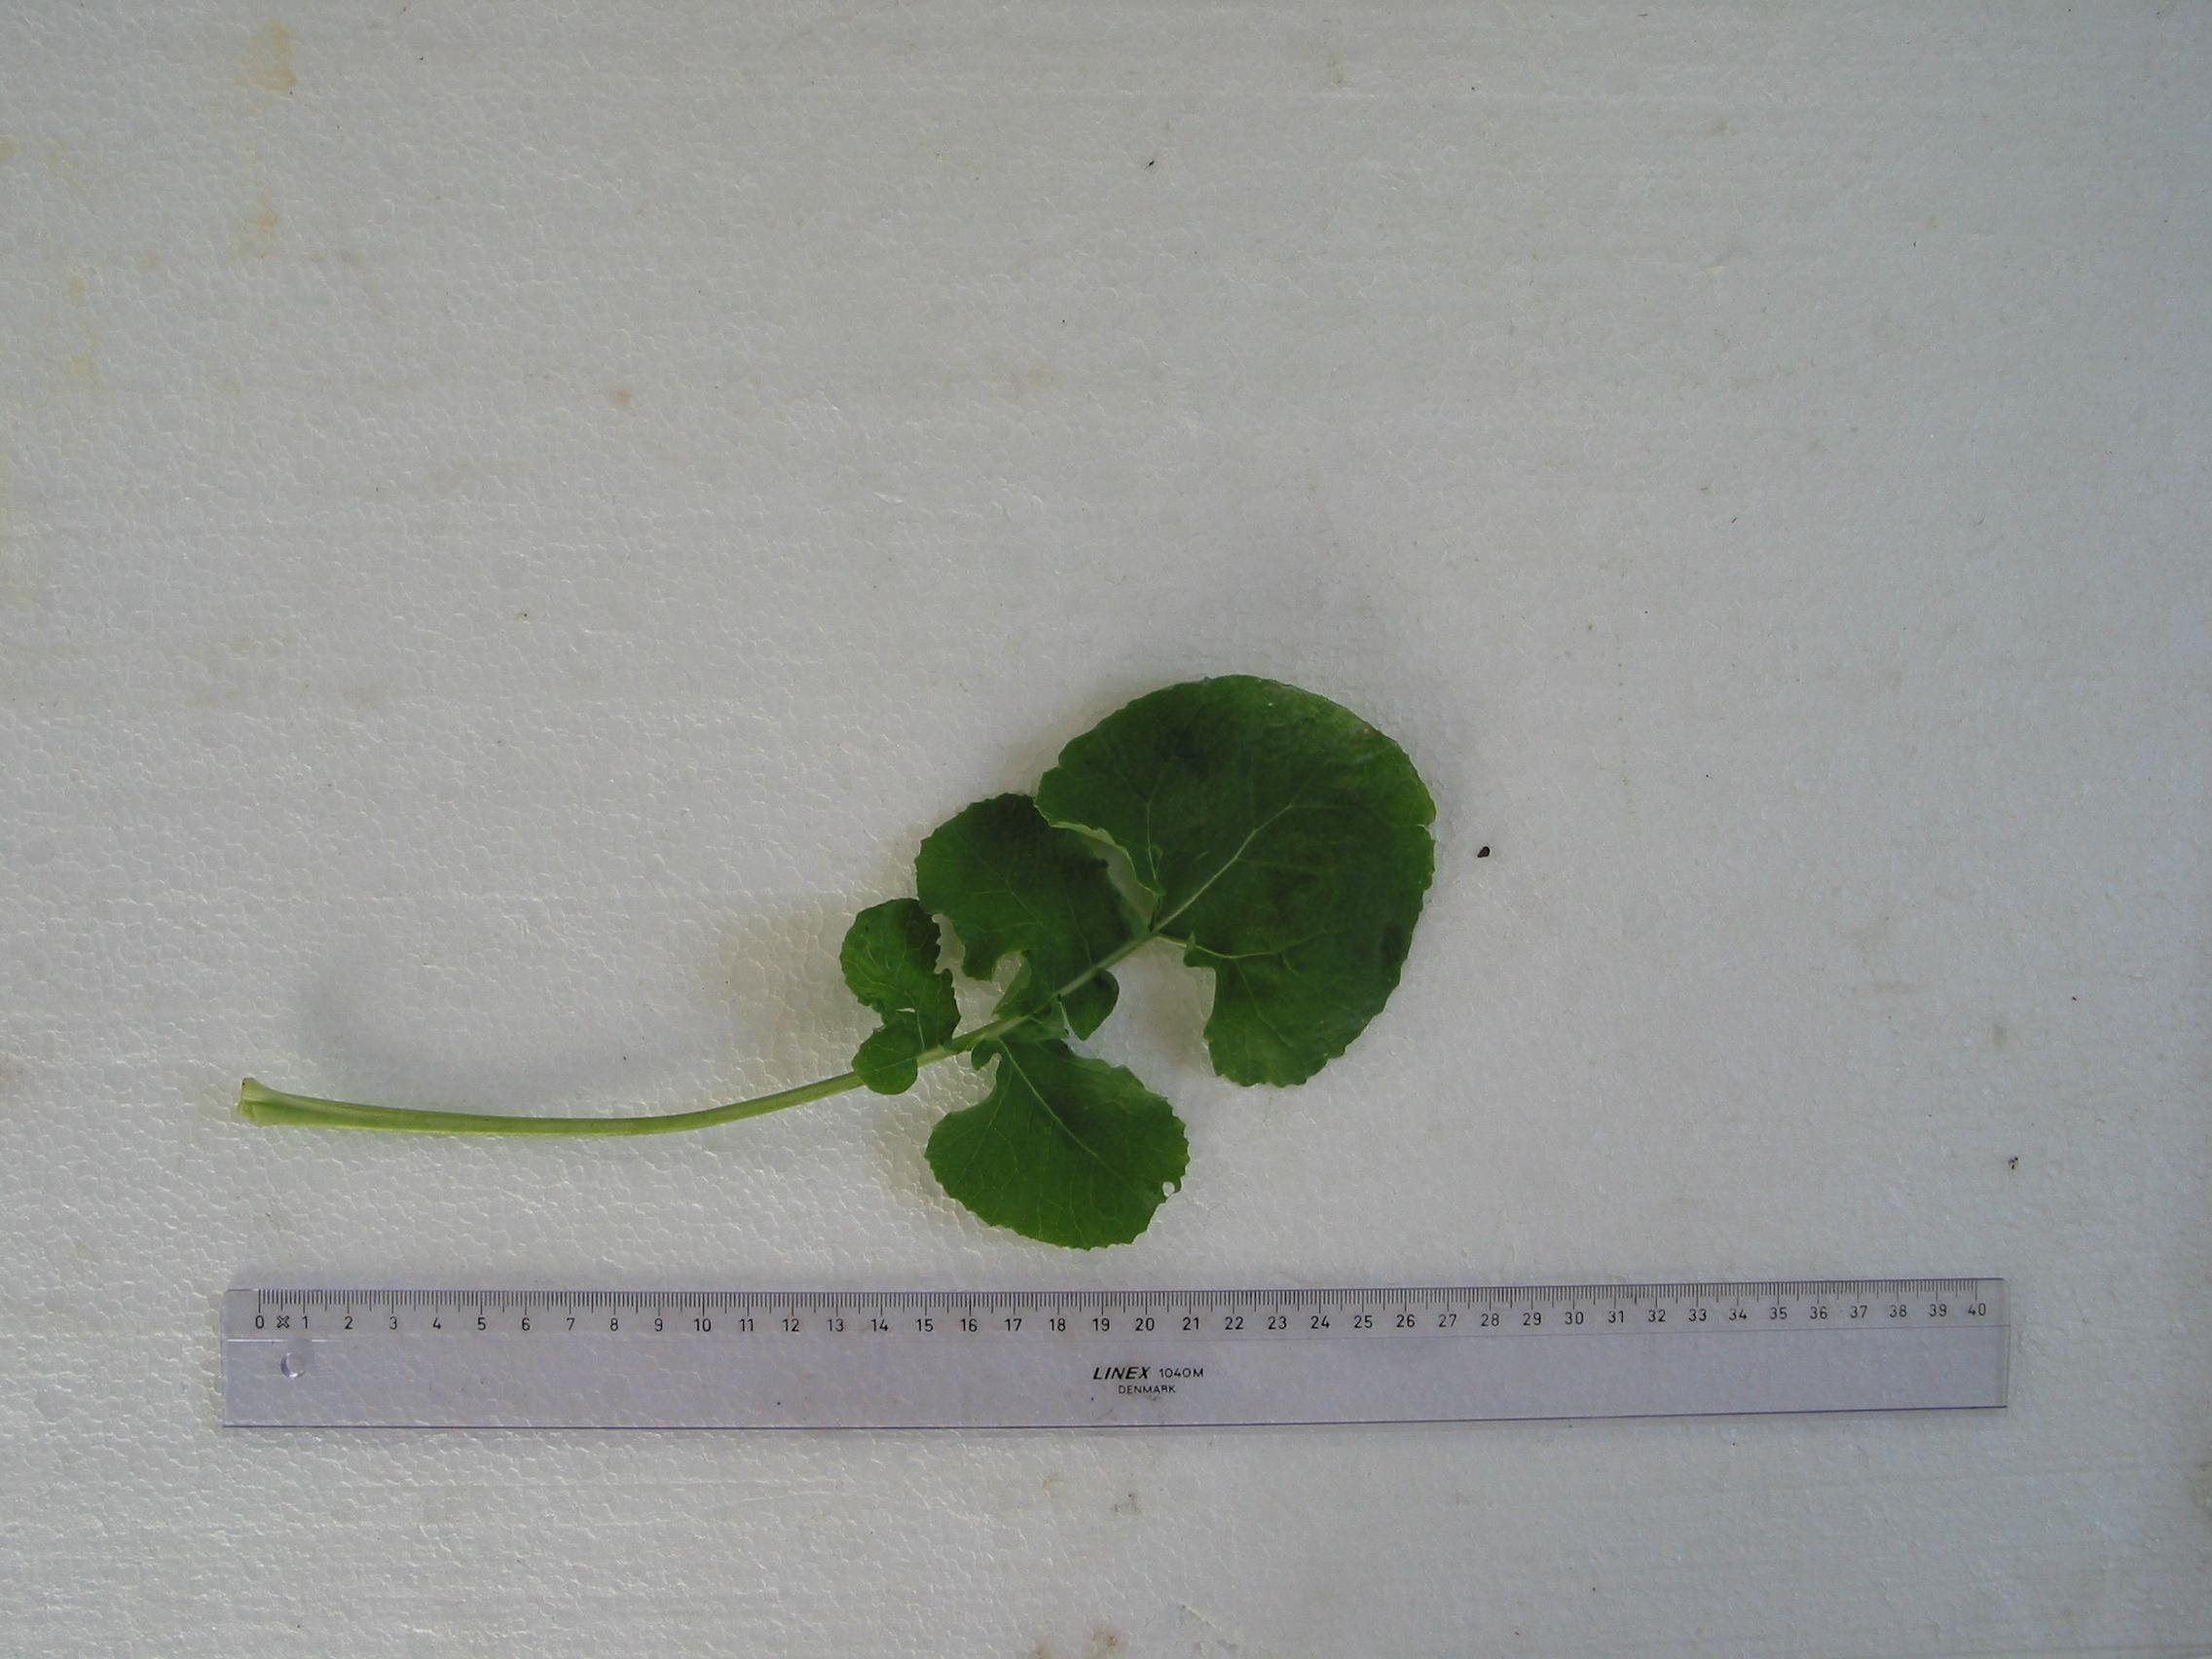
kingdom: Plantae
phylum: Tracheophyta
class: Magnoliopsida
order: Brassicales
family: Brassicaceae
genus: Brassica
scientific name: Brassica napus
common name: Rape
